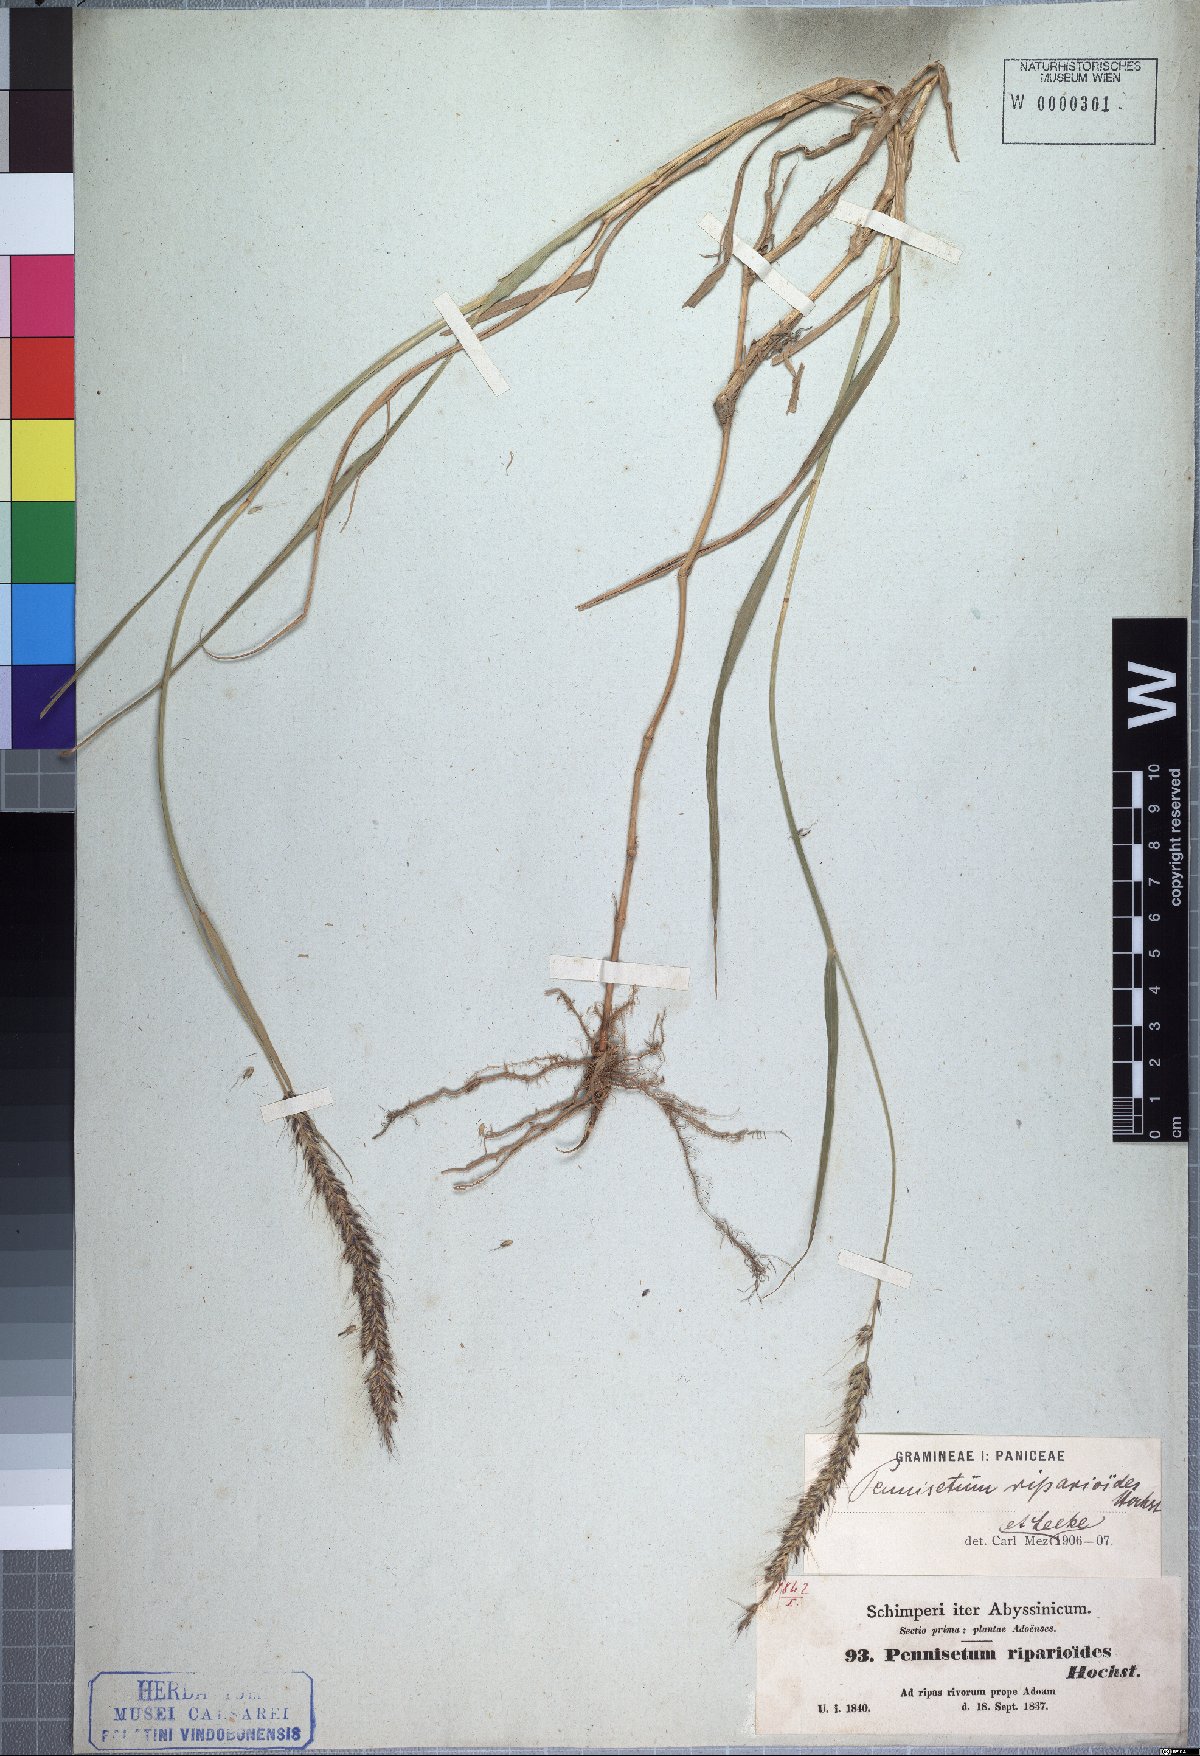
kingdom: Plantae
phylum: Tracheophyta
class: Liliopsida
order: Poales
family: Poaceae
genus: Cenchrus
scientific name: Cenchrus caudatus
